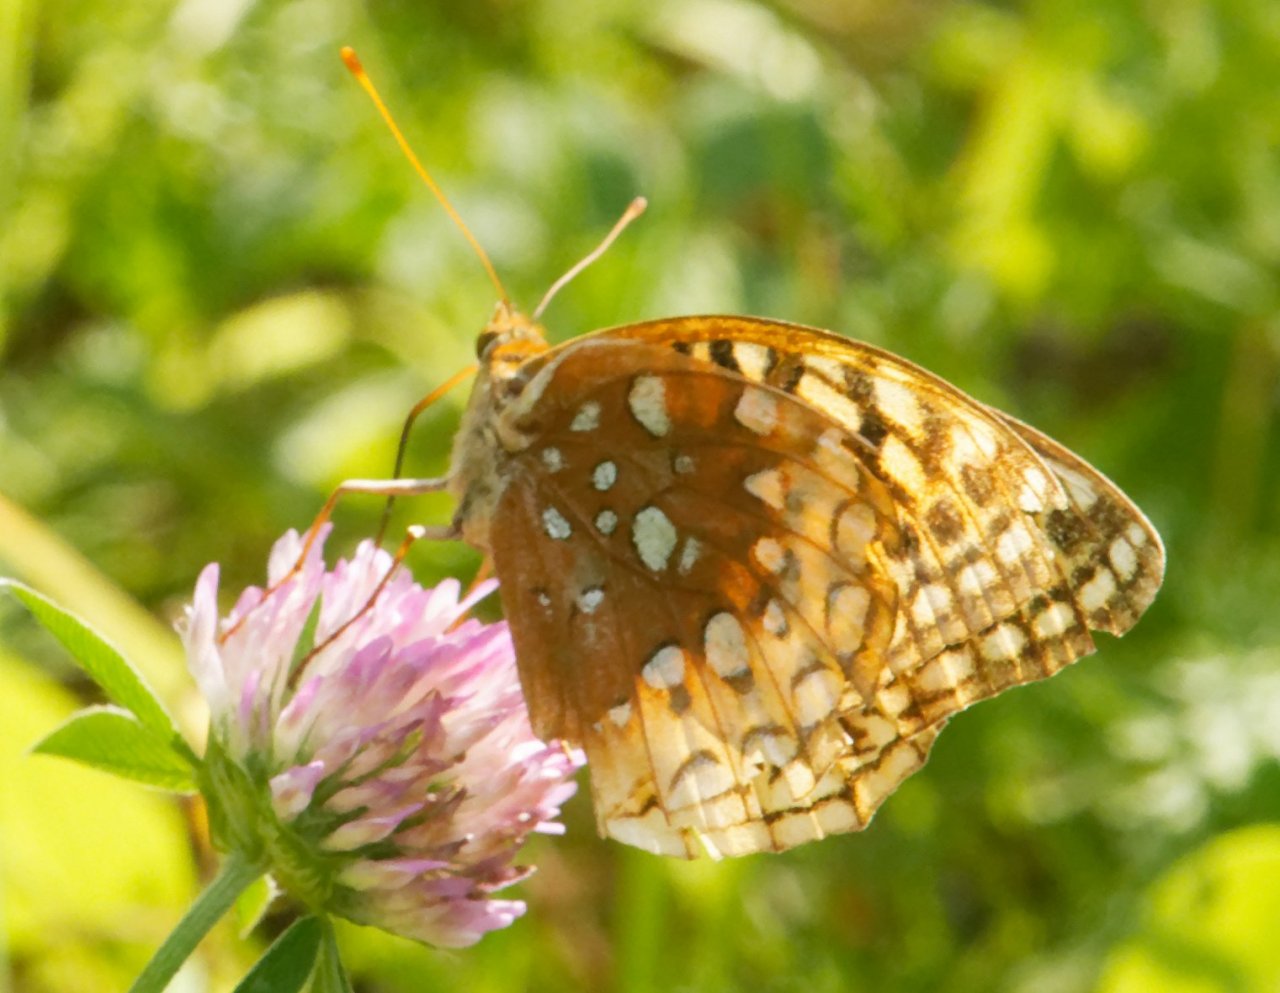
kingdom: Animalia
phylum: Arthropoda
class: Insecta
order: Lepidoptera
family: Nymphalidae
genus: Speyeria
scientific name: Speyeria cybele
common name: Great Spangled Fritillary
